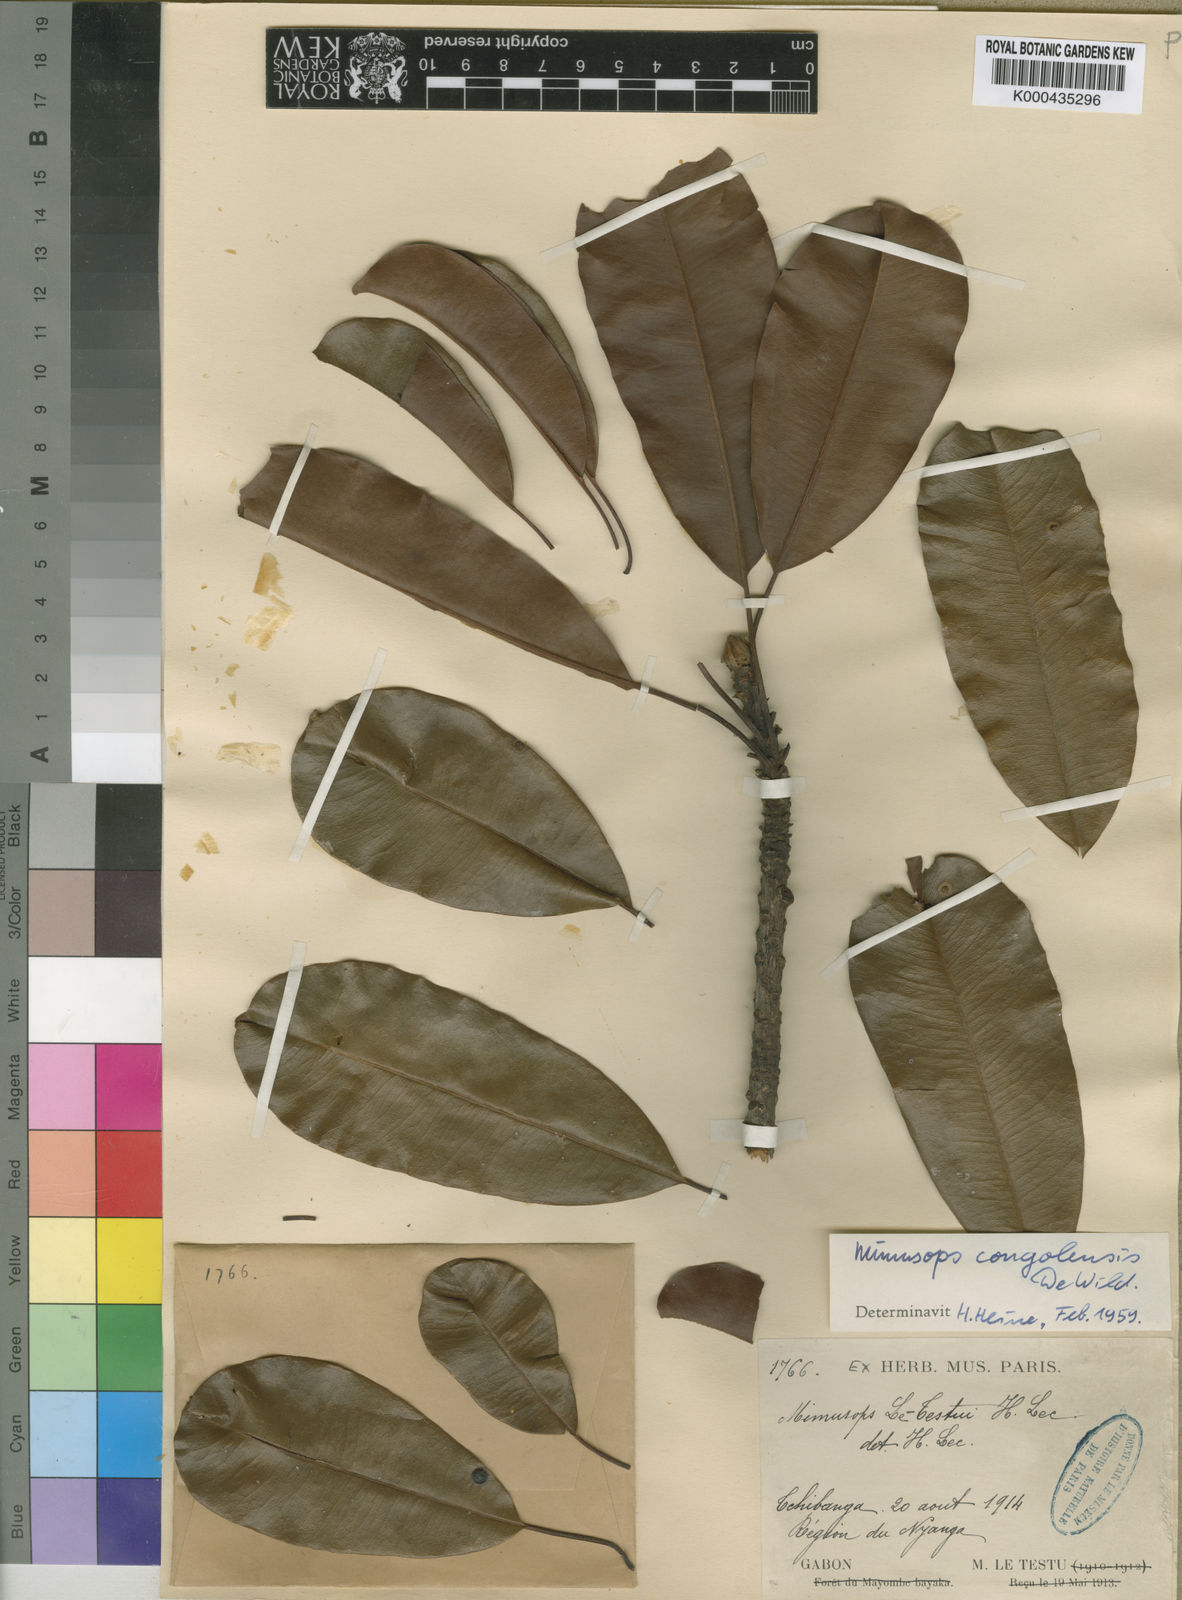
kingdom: Plantae
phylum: Tracheophyta
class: Magnoliopsida
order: Ericales
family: Sapotaceae
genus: Autranella
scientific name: Autranella congolensis
